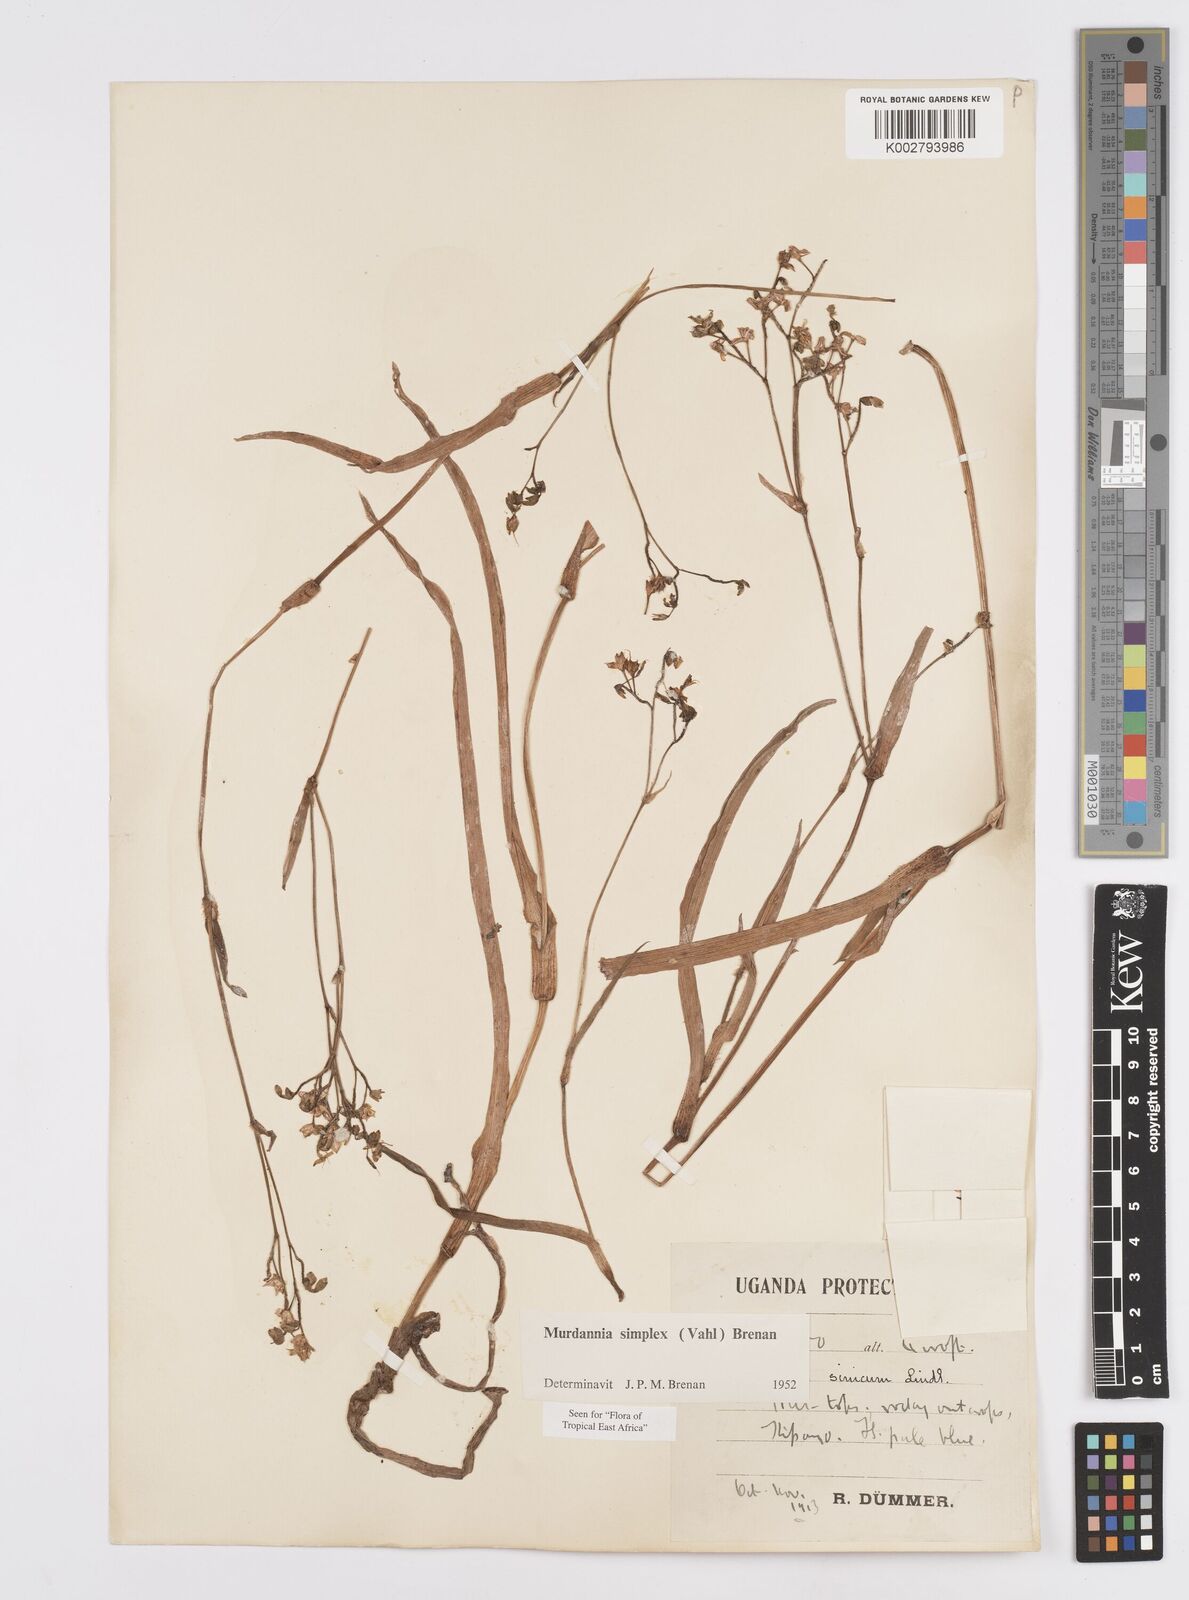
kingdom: Plantae
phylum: Tracheophyta
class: Liliopsida
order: Commelinales
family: Commelinaceae
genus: Murdannia
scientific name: Murdannia simplex
